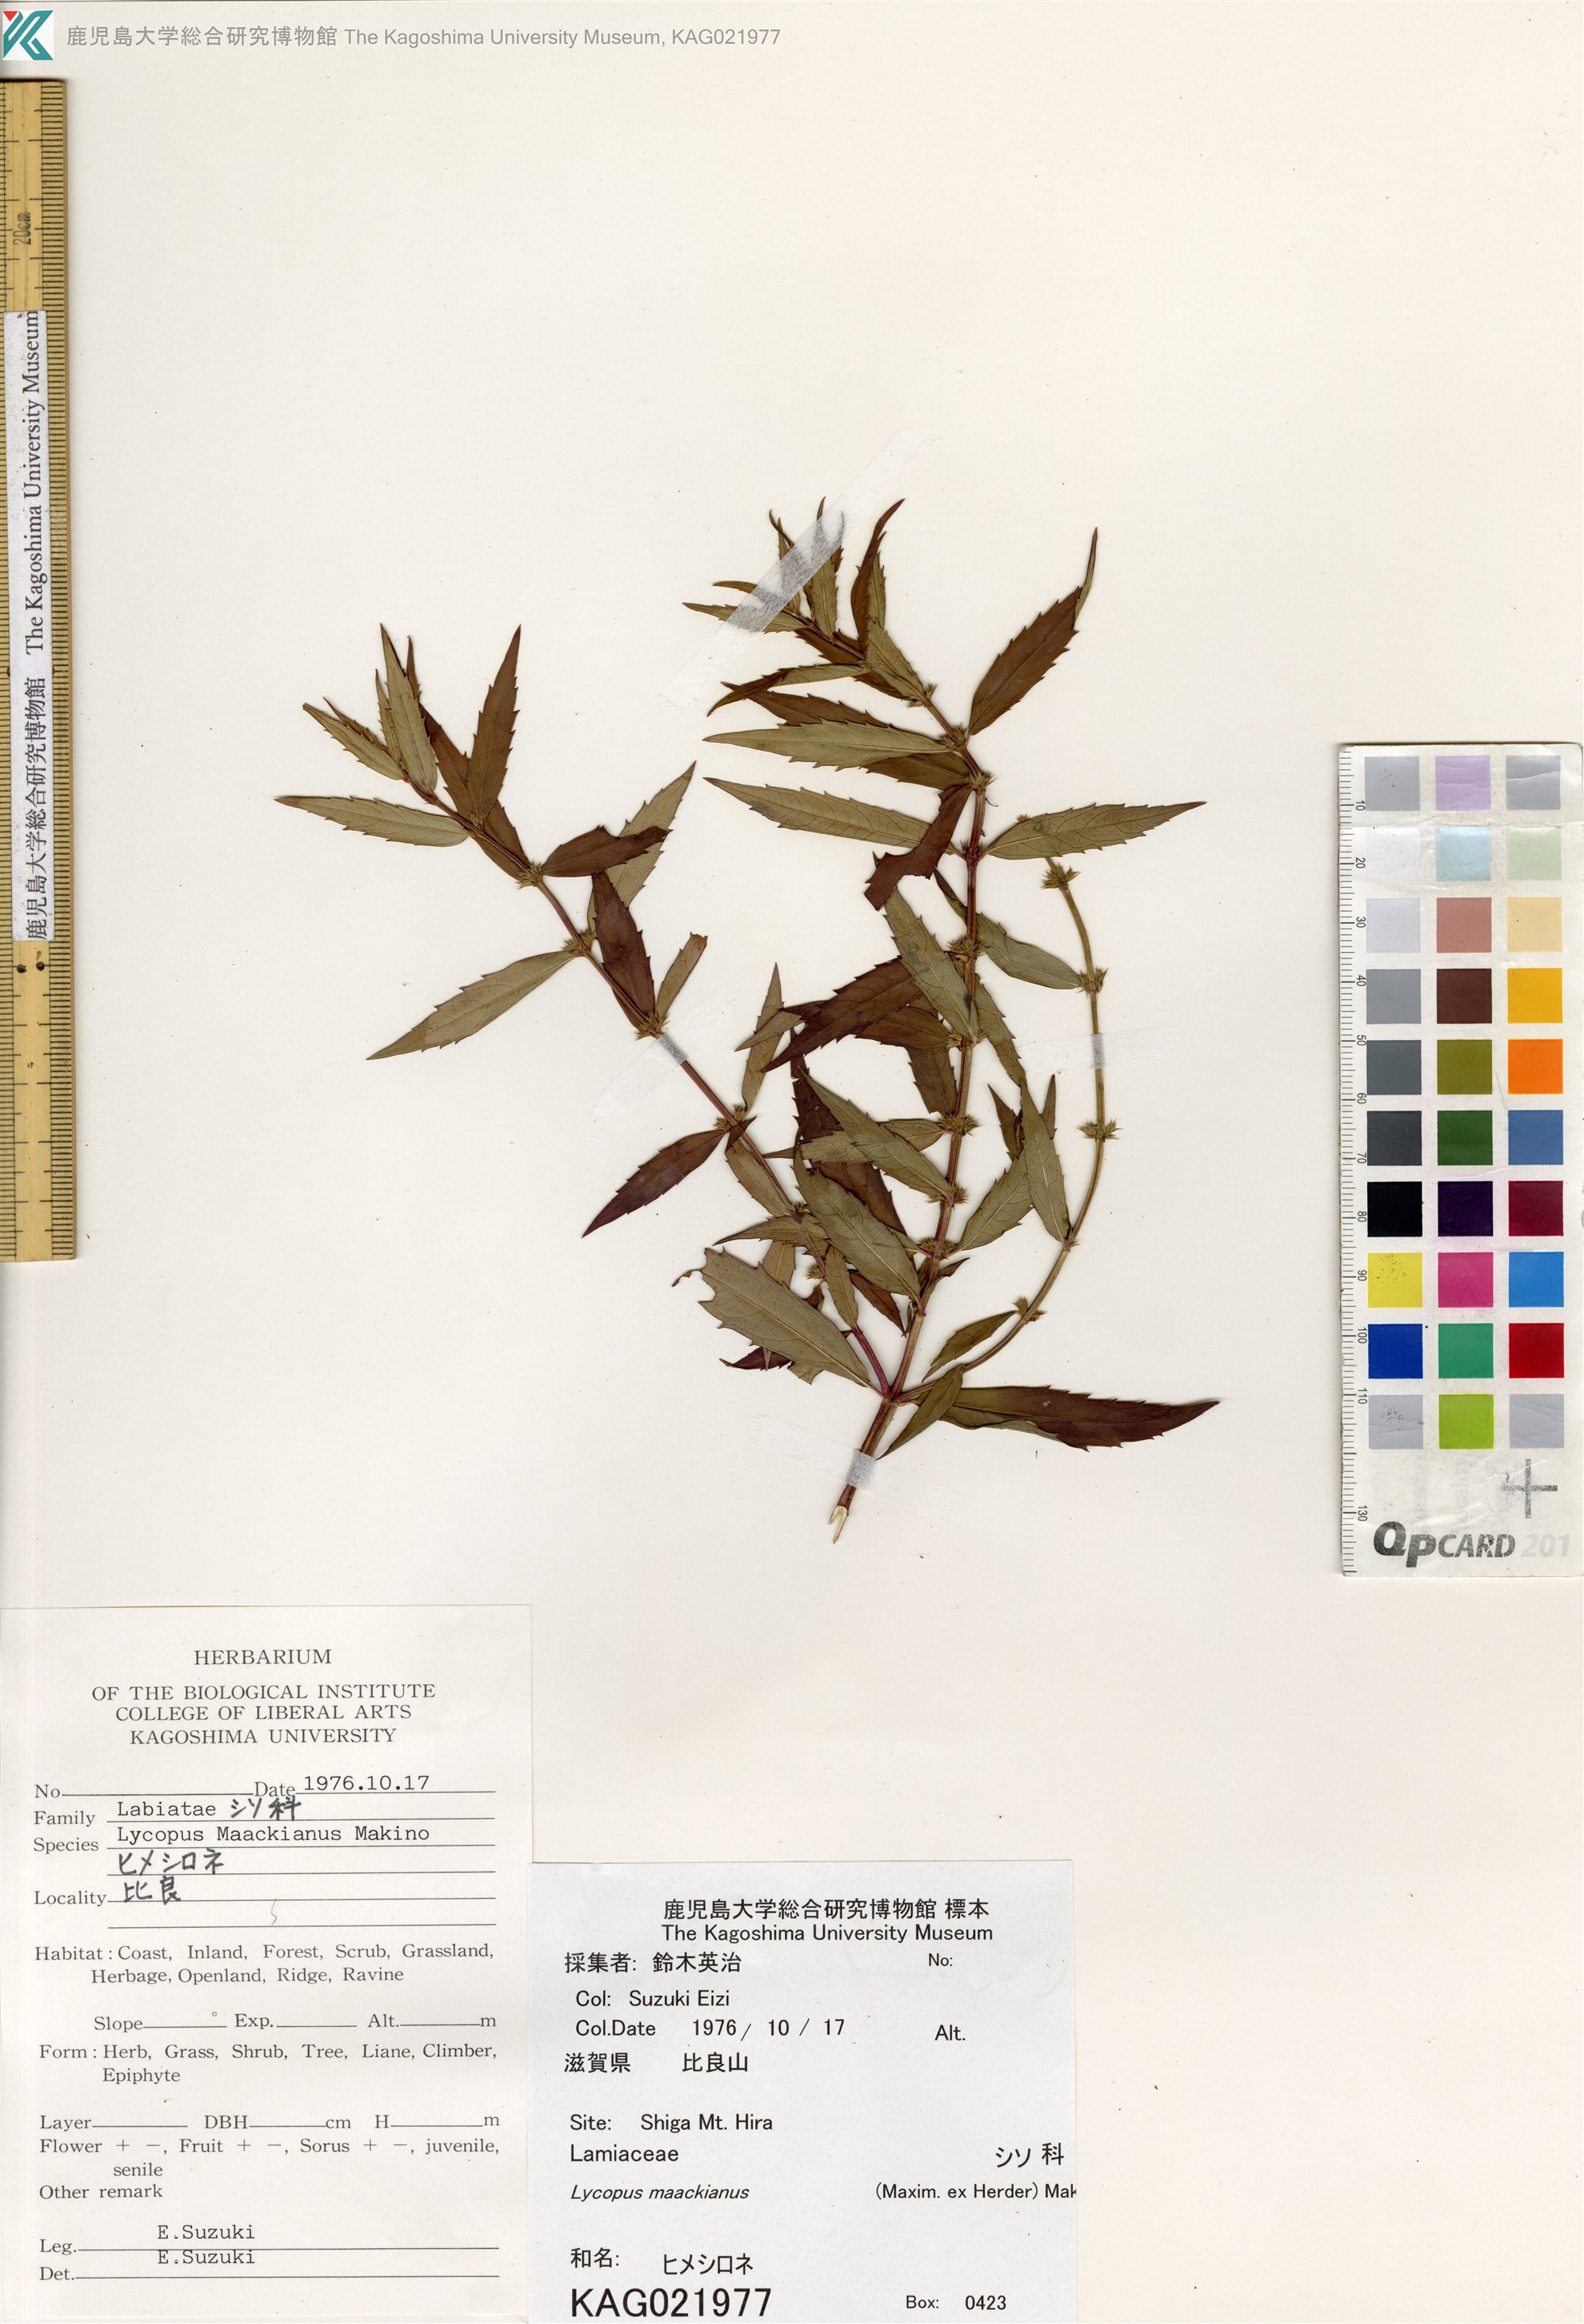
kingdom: Plantae
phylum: Tracheophyta
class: Magnoliopsida
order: Lamiales
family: Lamiaceae
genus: Lycopus
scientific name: Lycopus lucidus
